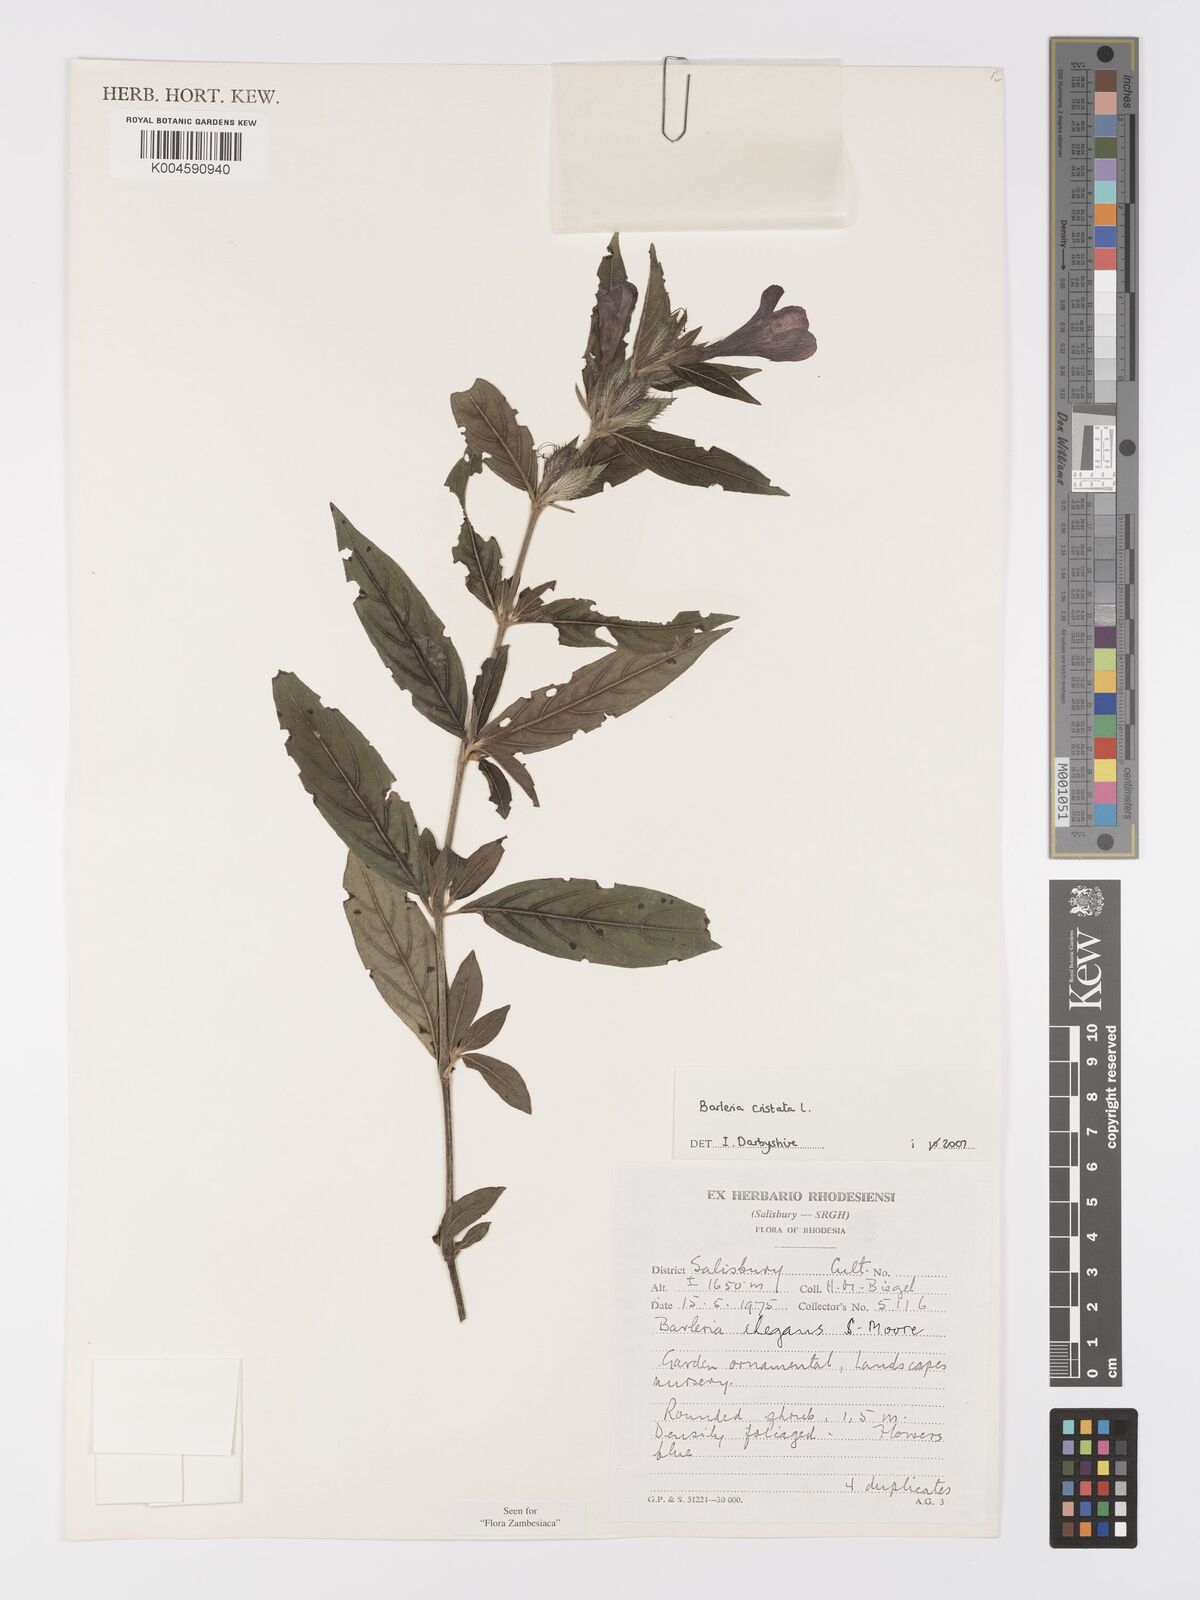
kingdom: Plantae
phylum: Tracheophyta
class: Magnoliopsida
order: Lamiales
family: Acanthaceae
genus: Barleria
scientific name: Barleria cristata
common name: Crested philippine violet
